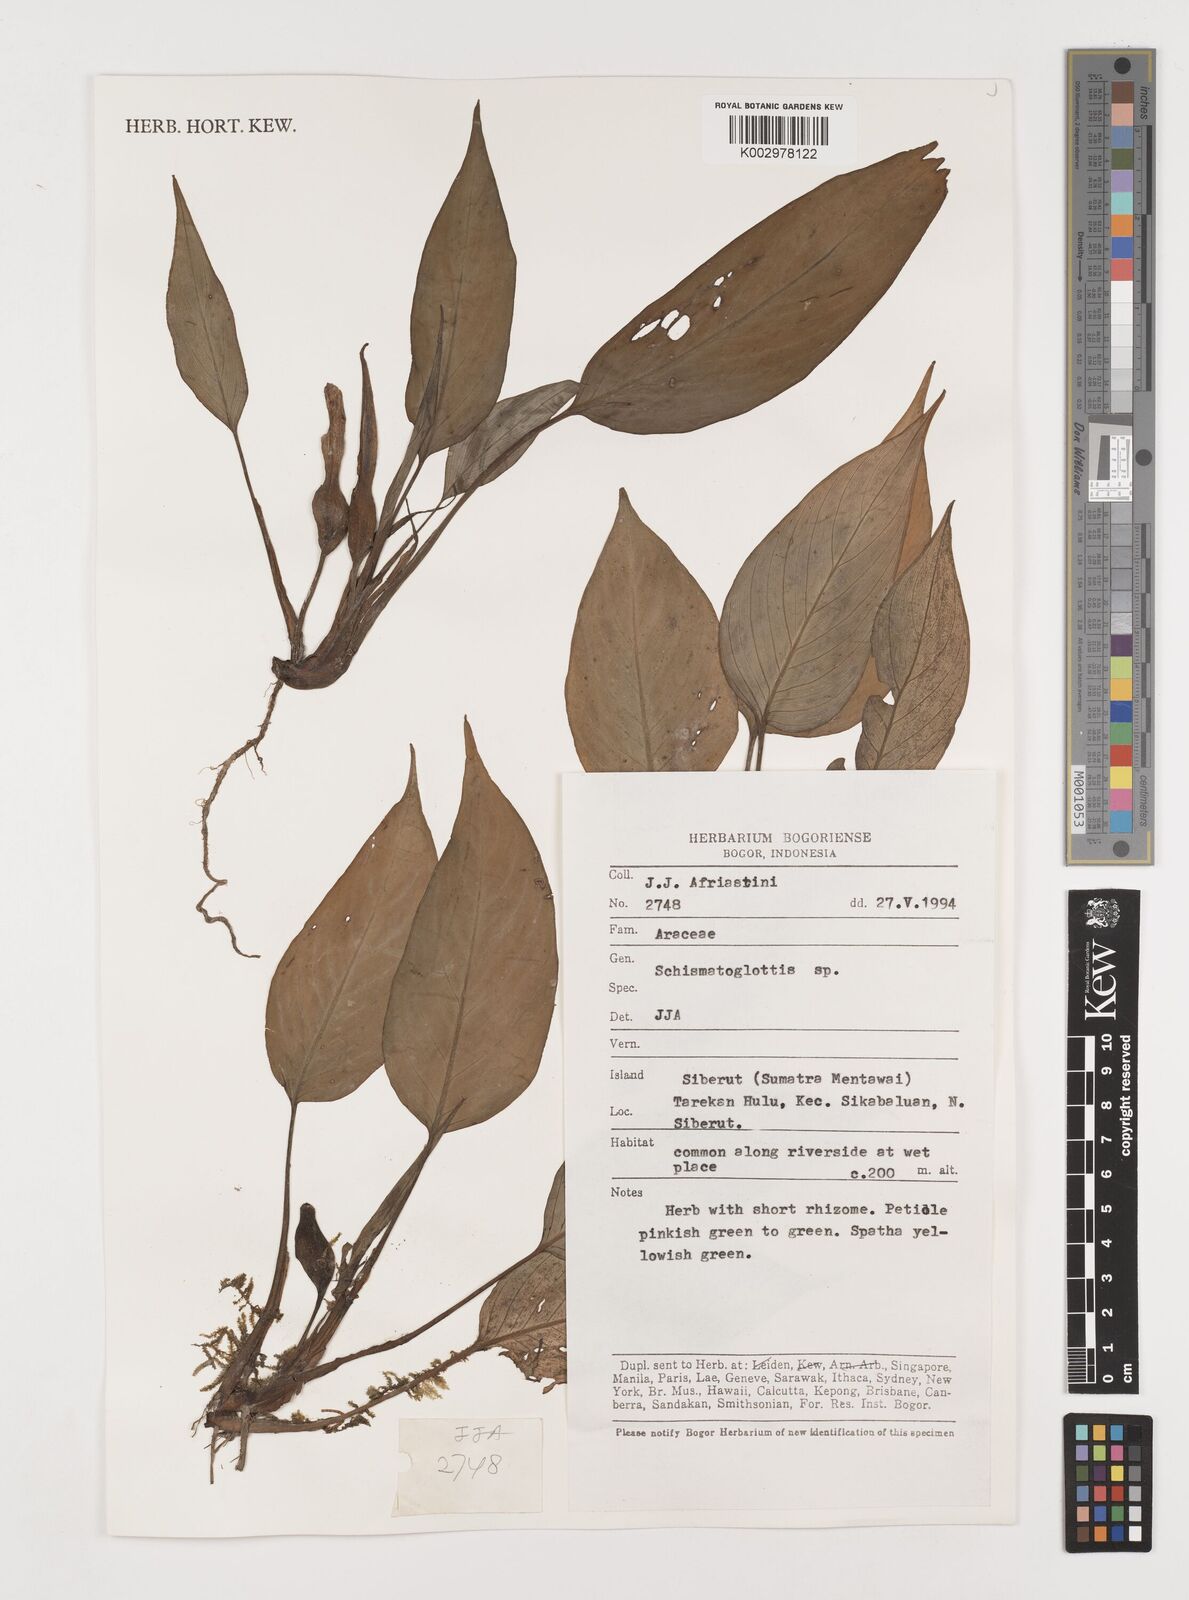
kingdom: Plantae
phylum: Tracheophyta
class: Liliopsida
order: Alismatales
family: Araceae
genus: Schismatoglottis
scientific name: Schismatoglottis
